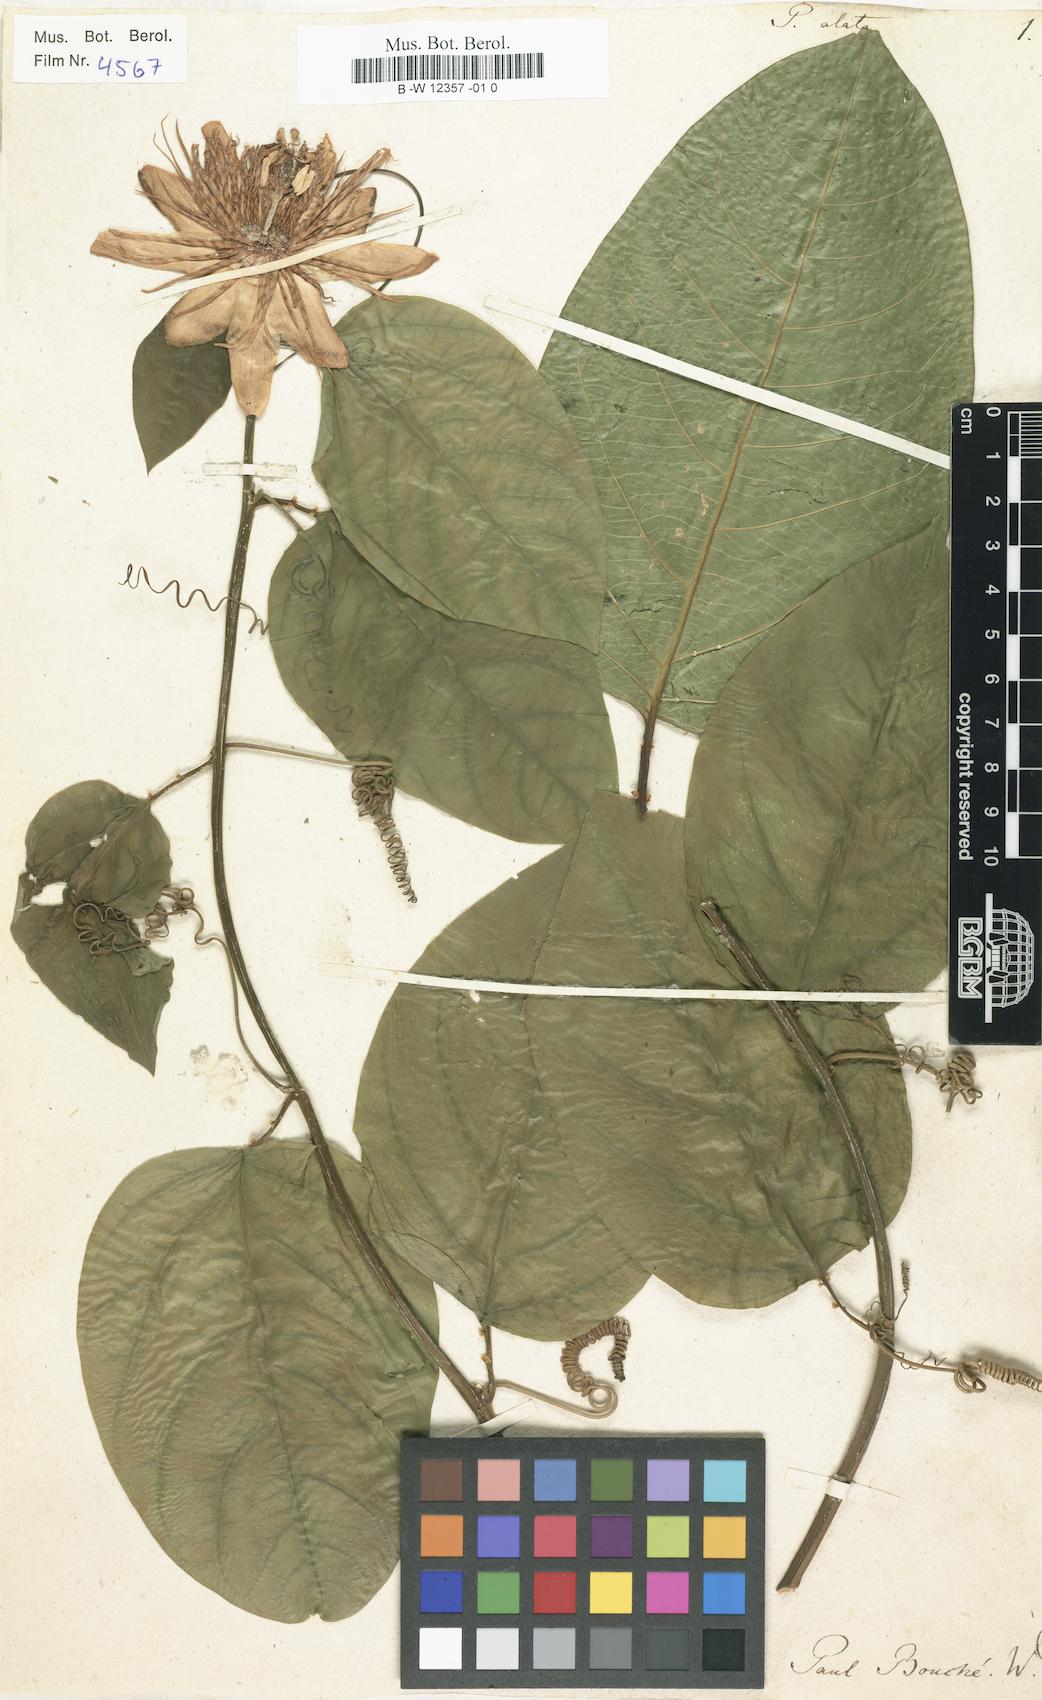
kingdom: Plantae
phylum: Tracheophyta
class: Magnoliopsida
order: Malpighiales
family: Passifloraceae
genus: Passiflora
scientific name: Passiflora alata
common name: Wing-stemmed passion flower
